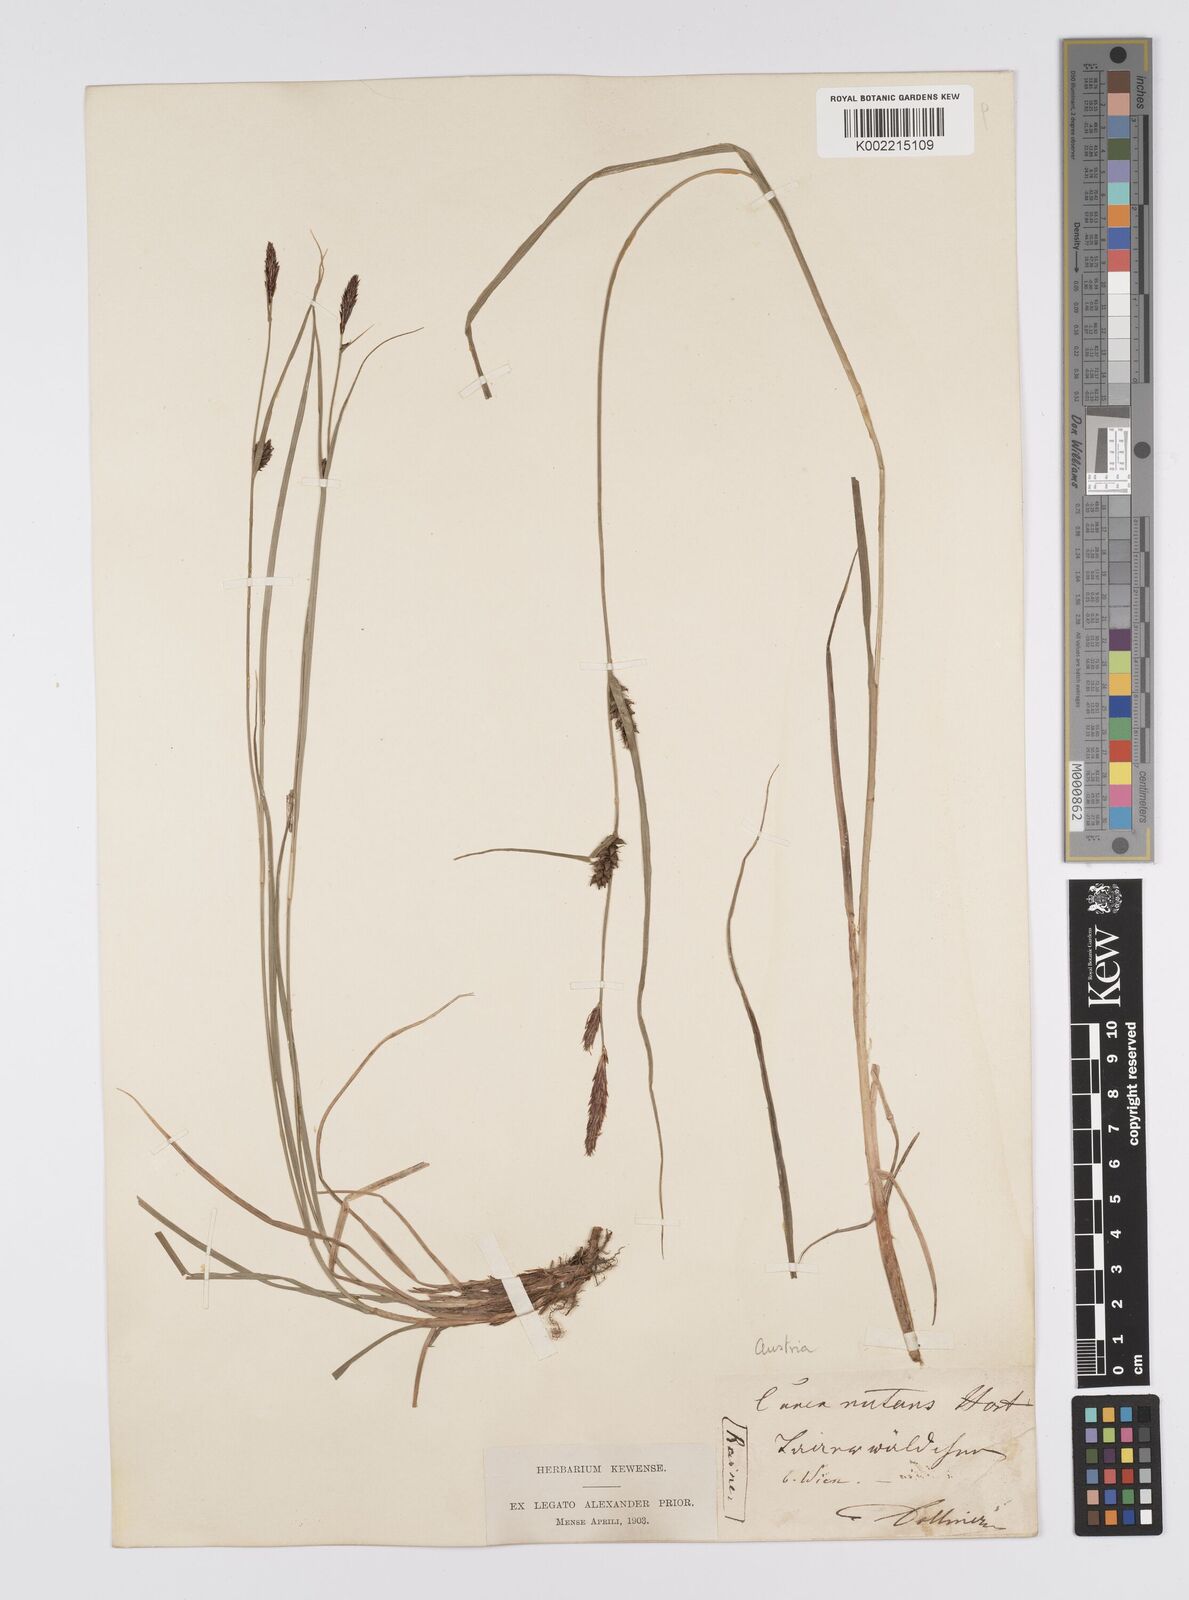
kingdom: Plantae
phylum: Tracheophyta
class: Liliopsida
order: Poales
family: Cyperaceae
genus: Carex
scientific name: Carex melanostachya
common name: Black-spiked sedge
